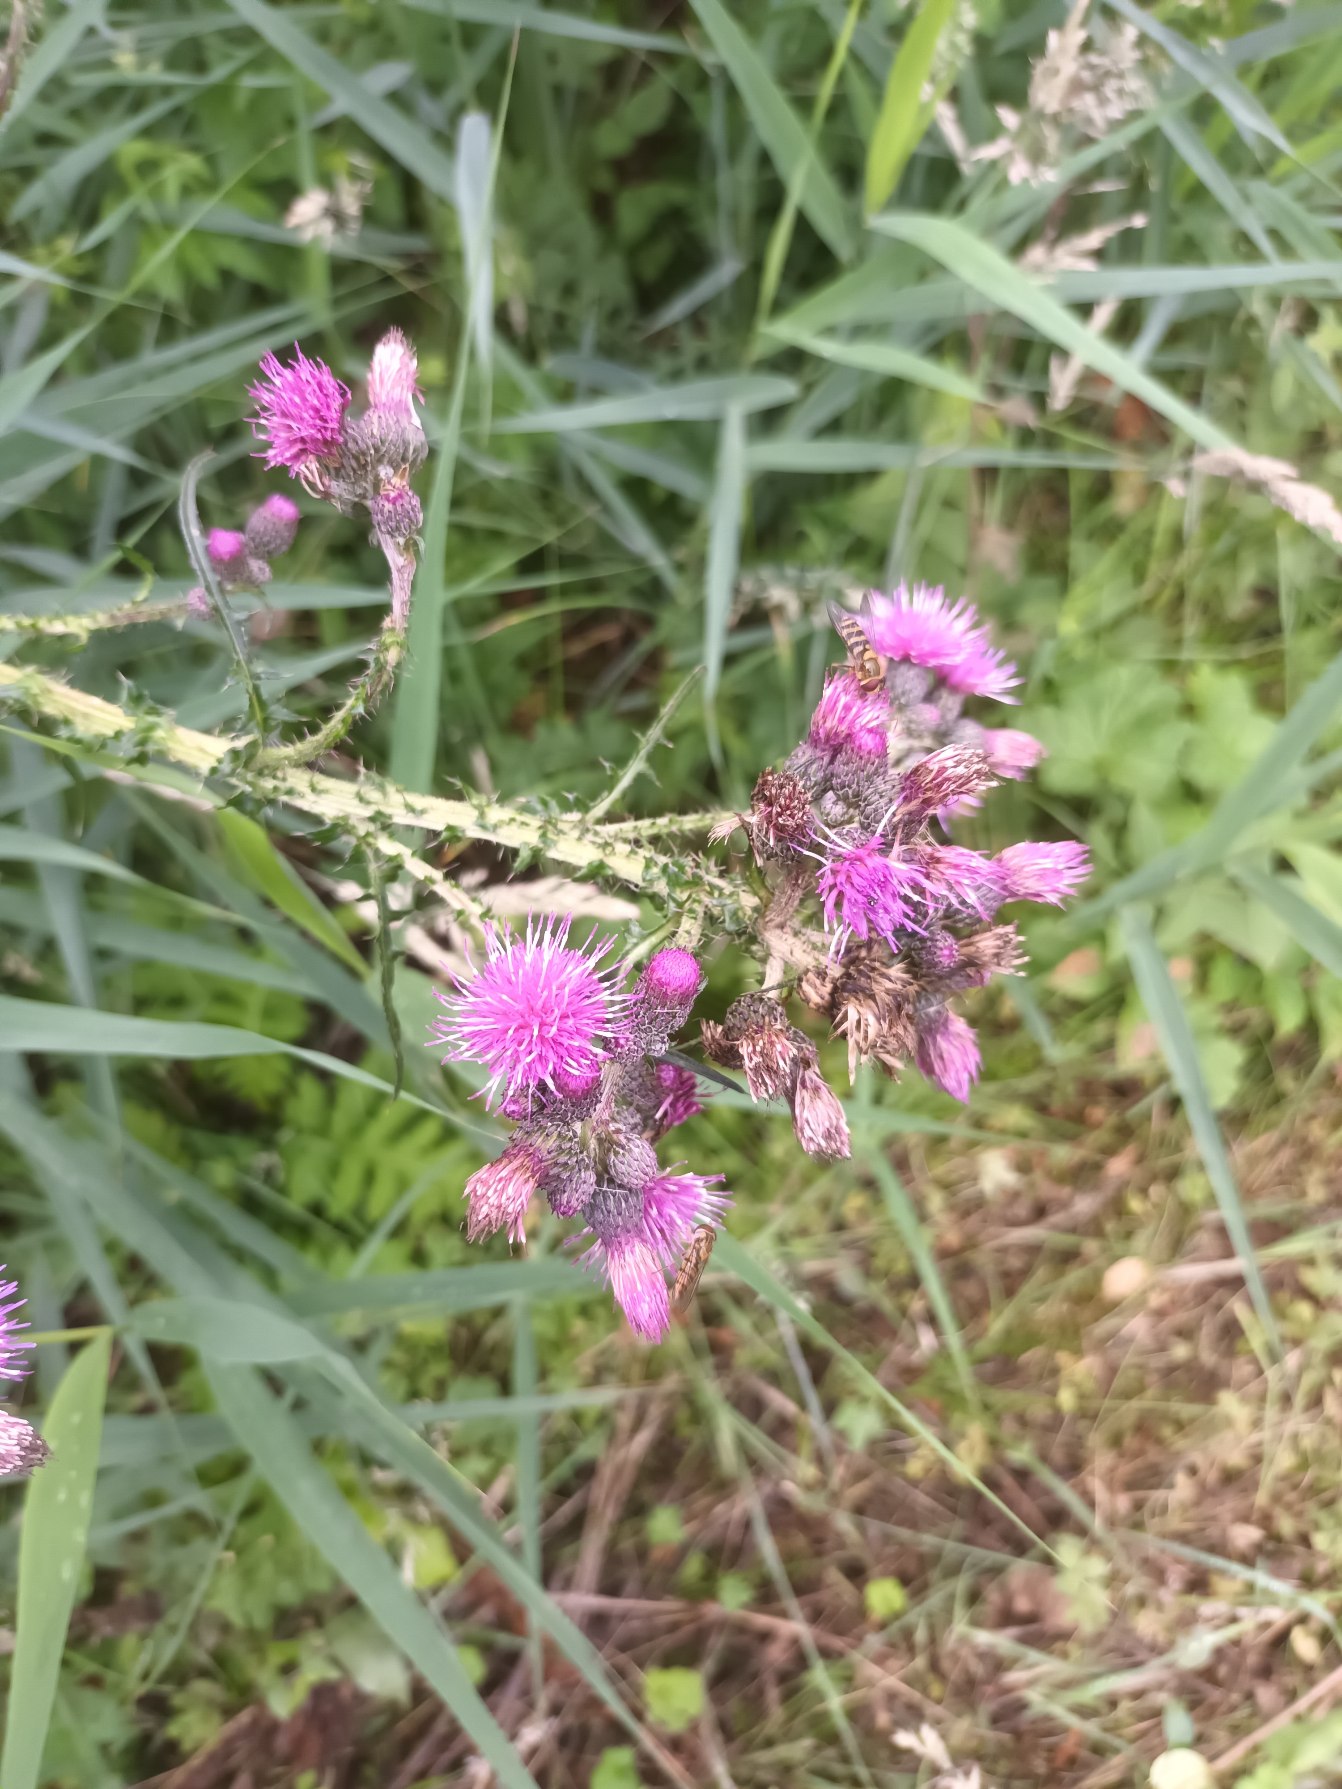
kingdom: Plantae
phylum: Tracheophyta
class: Magnoliopsida
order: Asterales
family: Asteraceae
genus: Cirsium
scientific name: Cirsium palustre
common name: Kær-tidsel
